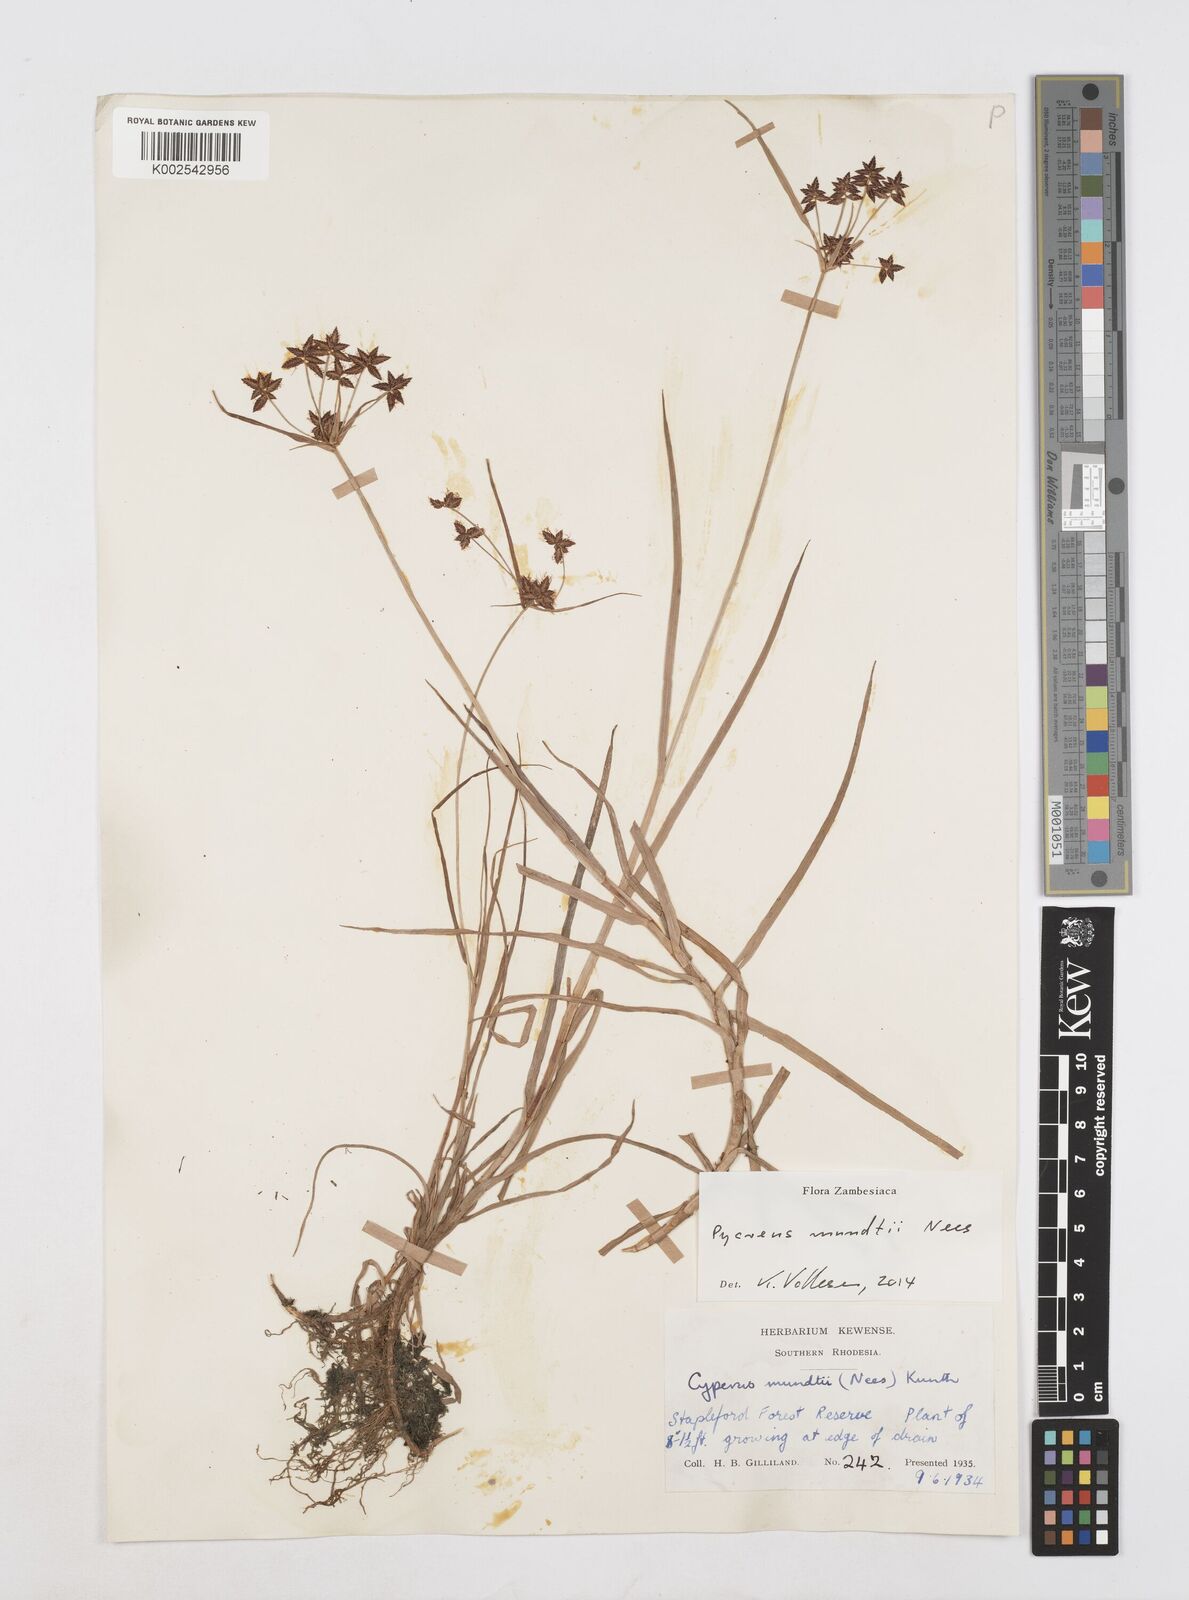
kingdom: Plantae
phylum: Tracheophyta
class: Liliopsida
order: Poales
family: Cyperaceae
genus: Cyperus
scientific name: Cyperus mundii
